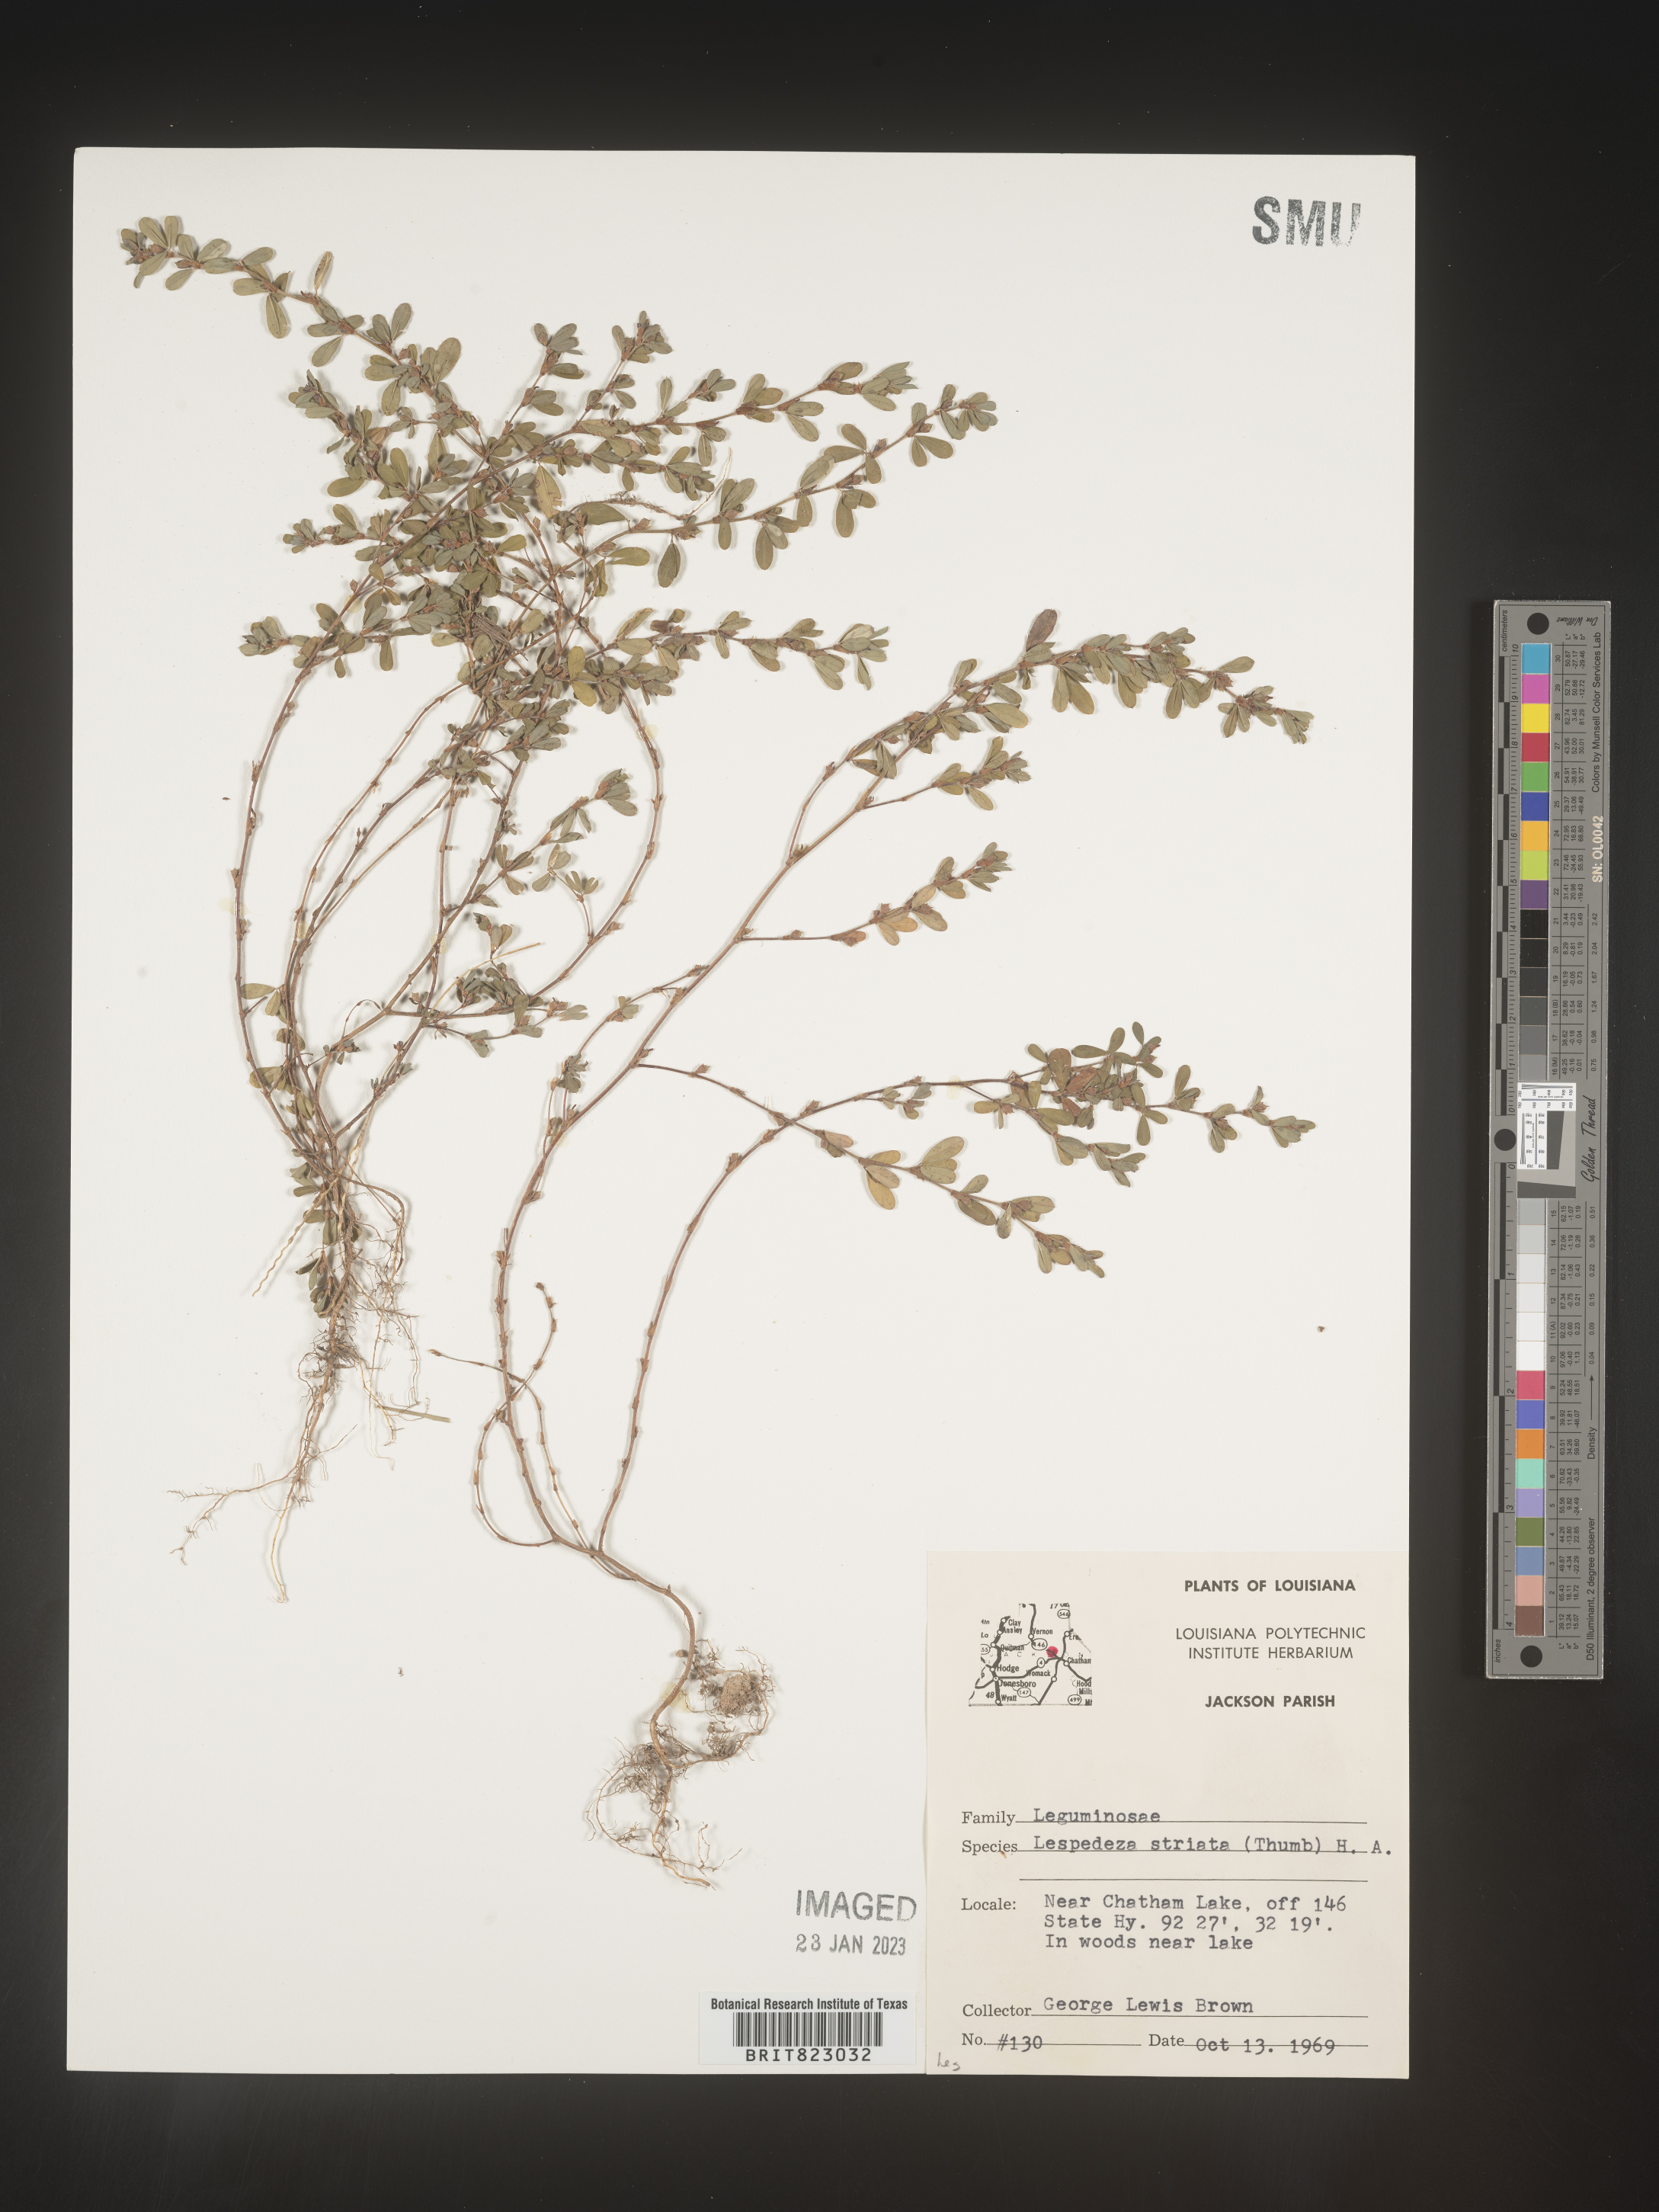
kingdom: Plantae
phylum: Tracheophyta
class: Magnoliopsida
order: Fabales
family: Fabaceae
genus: Kummerowia
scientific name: Kummerowia striata
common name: Japanese clover
